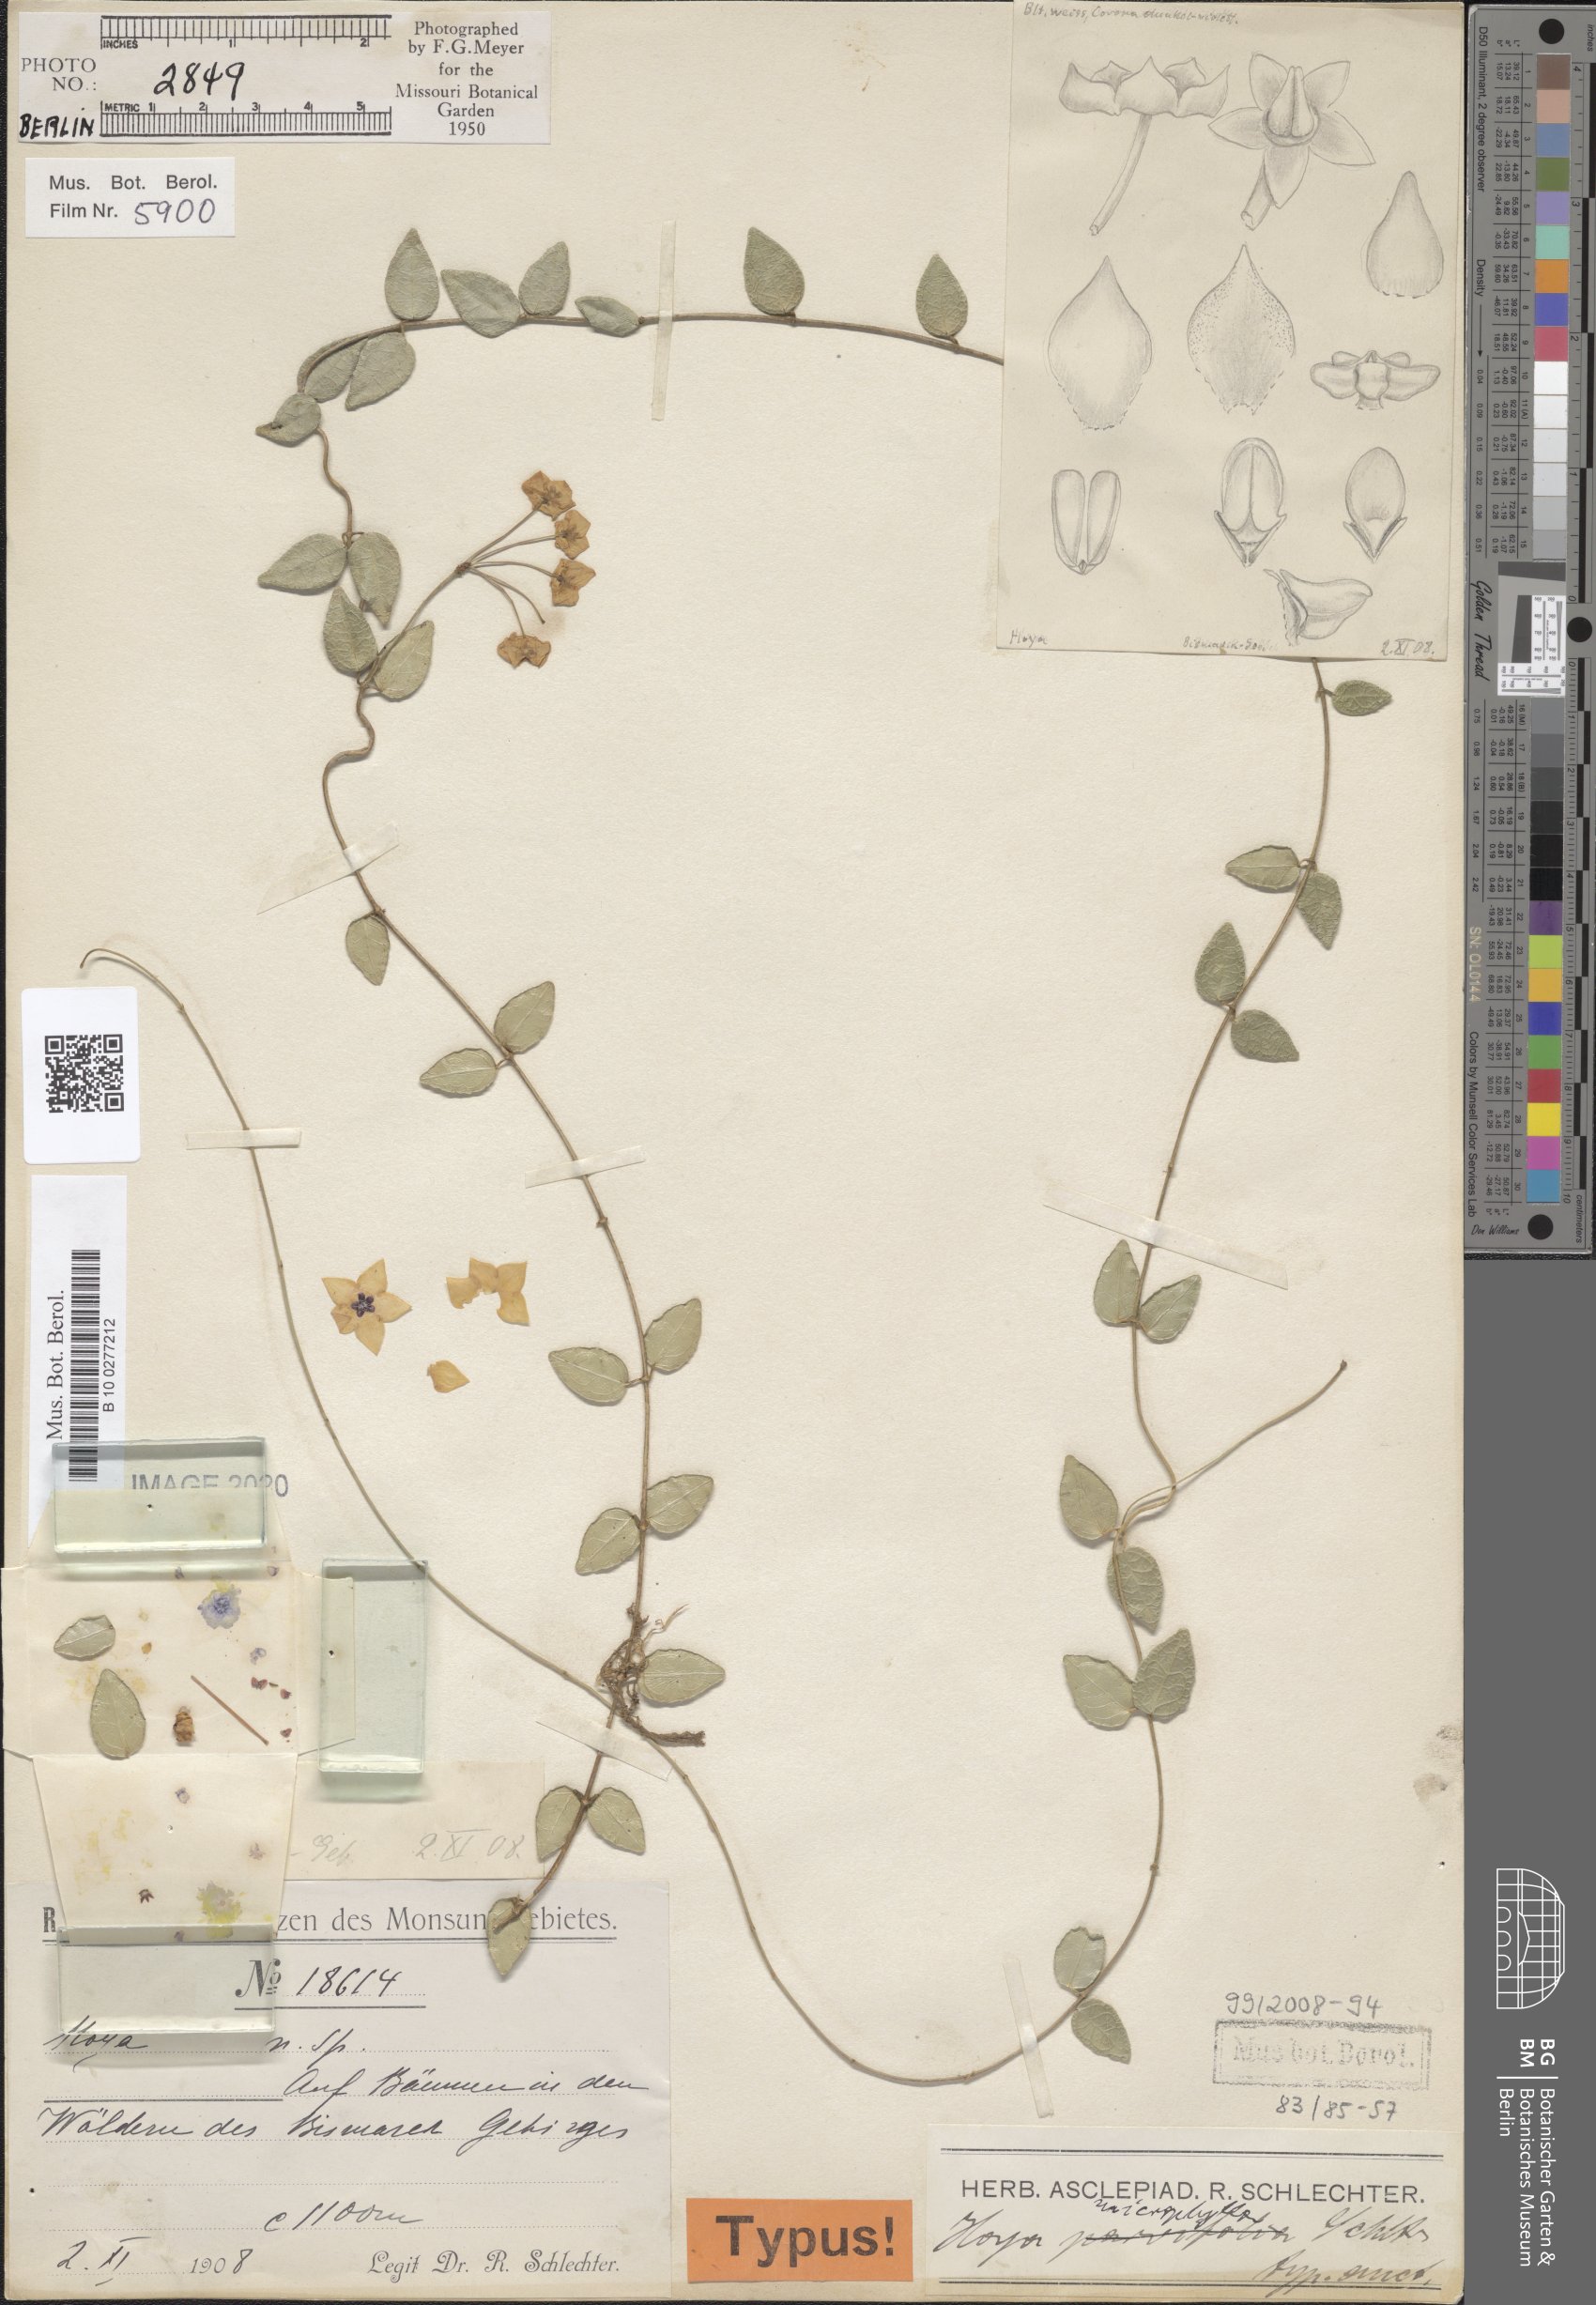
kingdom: Plantae
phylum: Tracheophyta
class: Magnoliopsida
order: Gentianales
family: Apocynaceae
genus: Hoya
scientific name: Hoya microphylla
